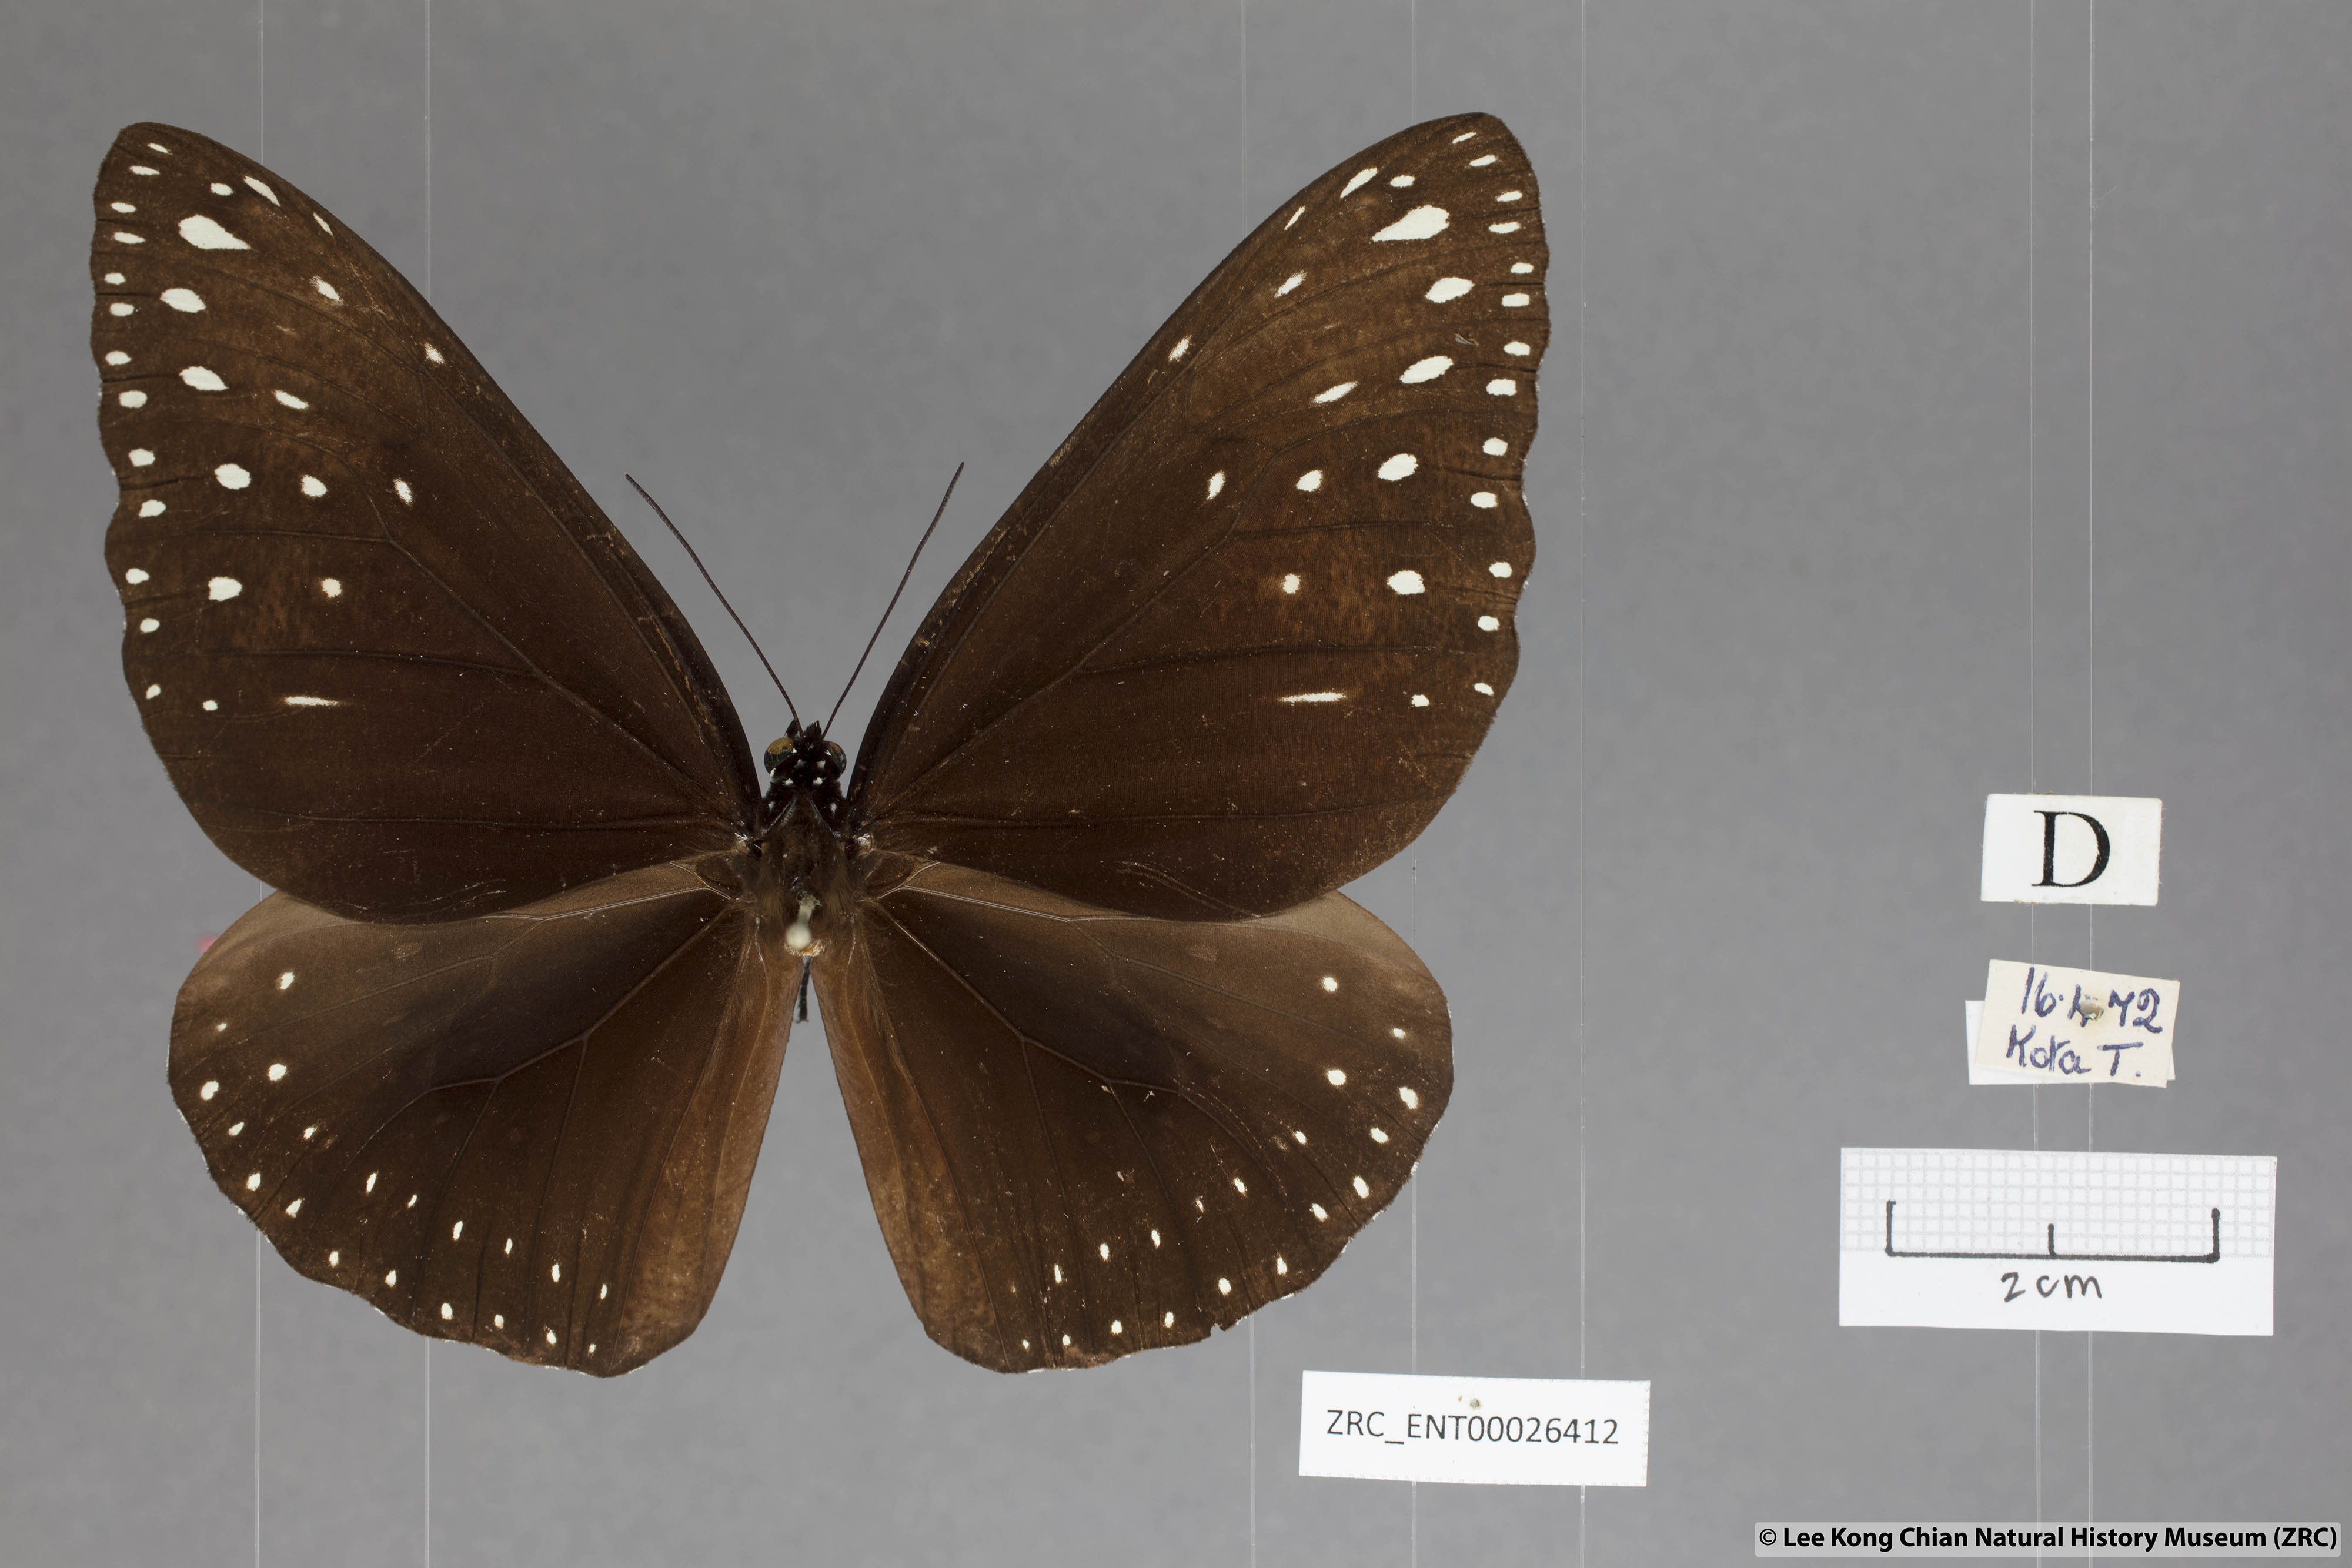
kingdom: Animalia
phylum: Arthropoda
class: Insecta
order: Lepidoptera
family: Nymphalidae
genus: Euploea
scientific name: Euploea camaralzeman
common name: Malayan crow butterfly
